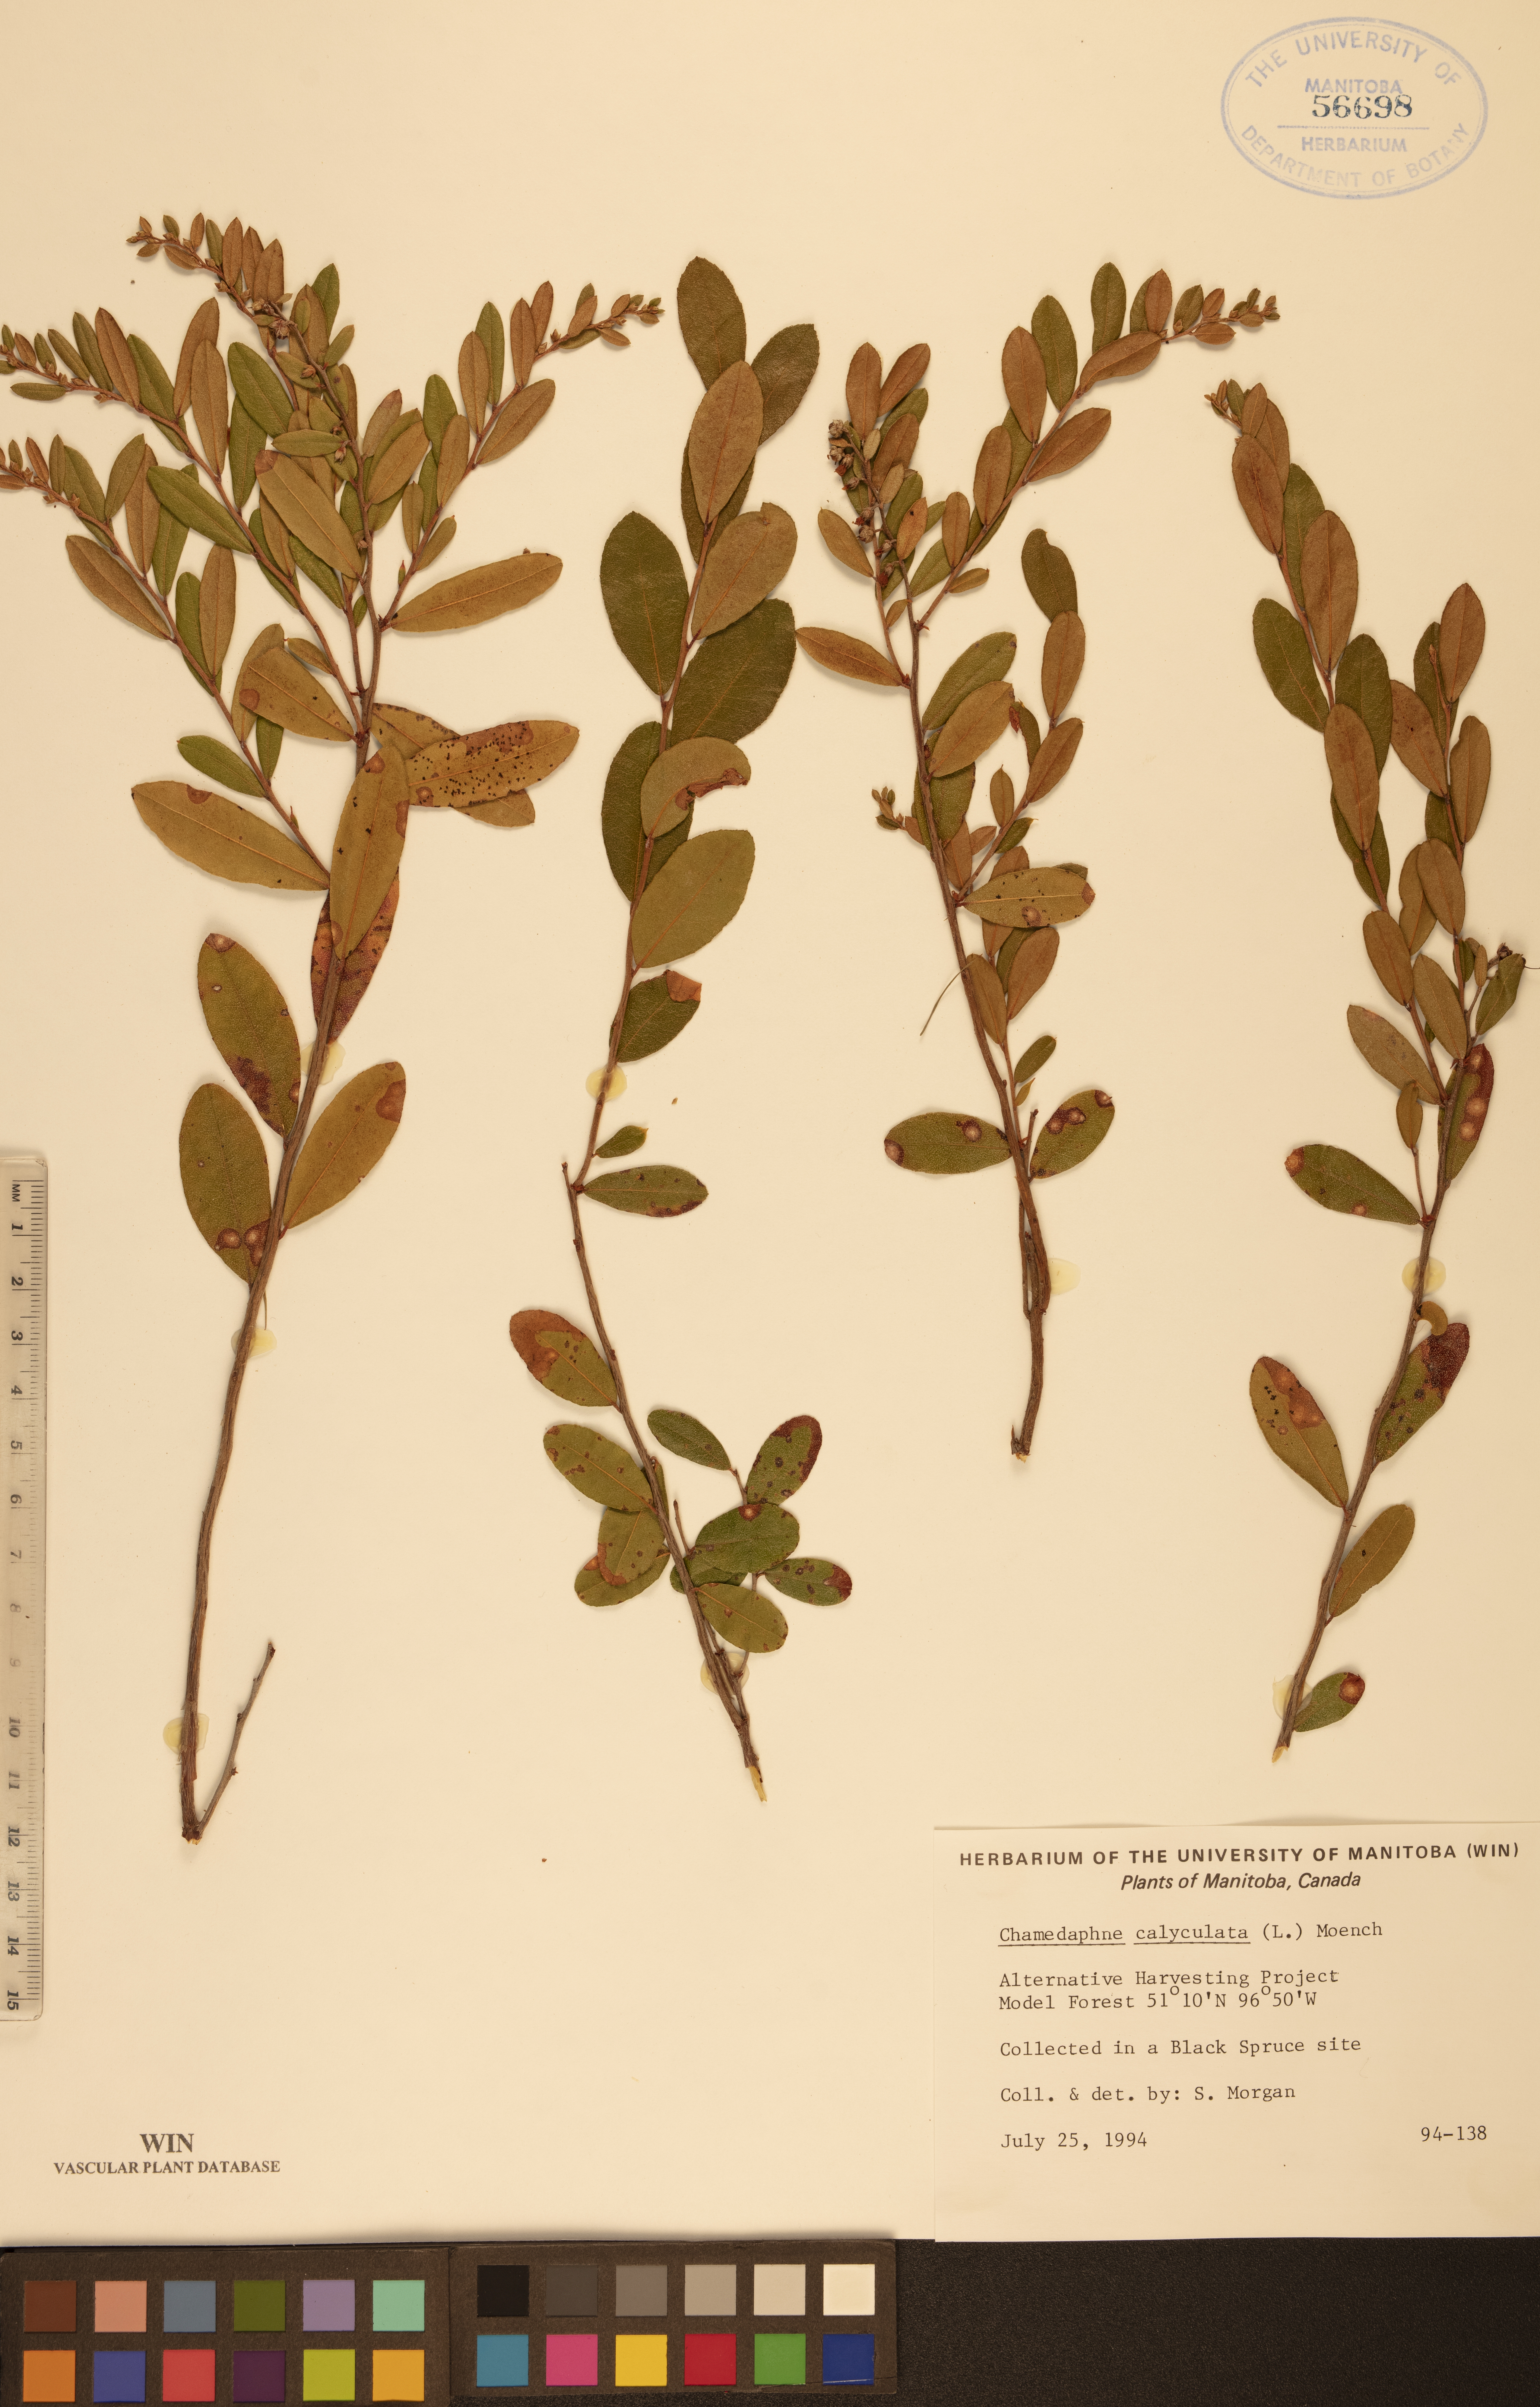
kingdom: Plantae
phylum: Tracheophyta
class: Magnoliopsida
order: Ericales
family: Ericaceae
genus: Chamaedaphne
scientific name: Chamaedaphne calyculata
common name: Leatherleaf
